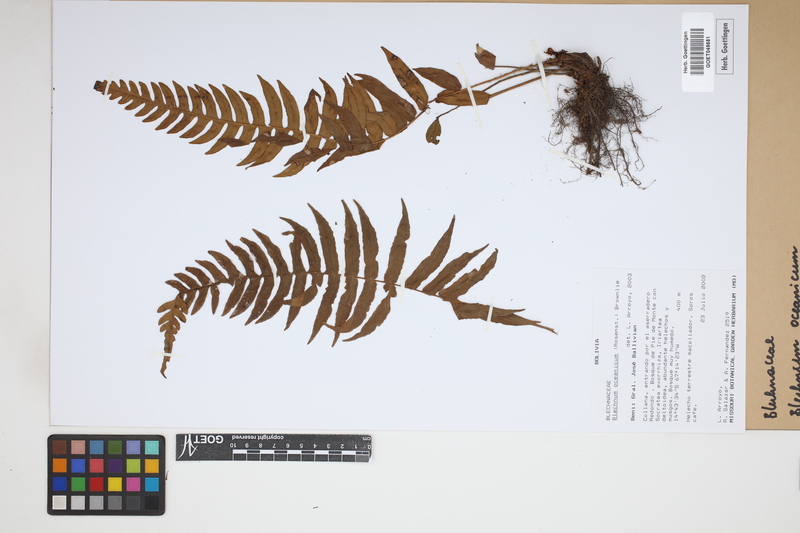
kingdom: Plantae
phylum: Tracheophyta
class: Polypodiopsida
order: Polypodiales
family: Blechnaceae
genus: Lomaria
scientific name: Lomaria oceanica
